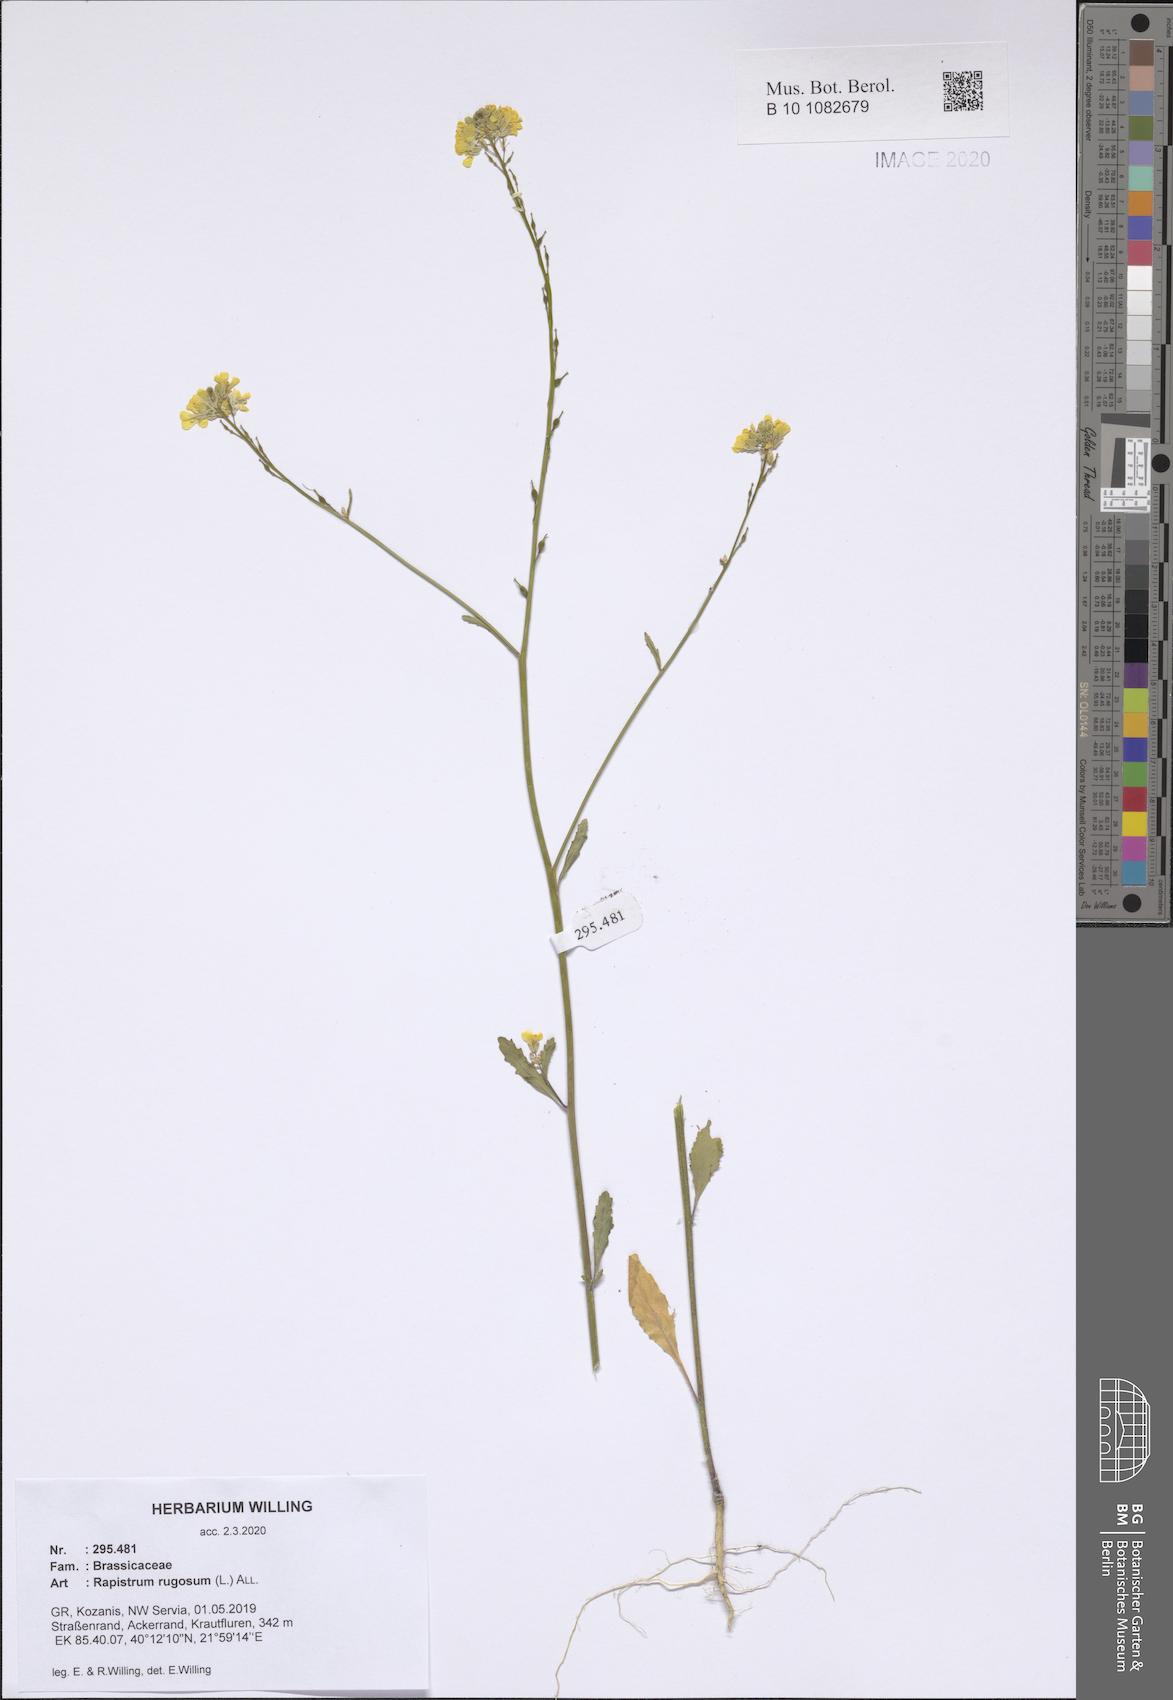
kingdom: Plantae
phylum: Tracheophyta
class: Magnoliopsida
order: Brassicales
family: Brassicaceae
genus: Rapistrum
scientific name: Rapistrum rugosum
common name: Annual bastardcabbage
